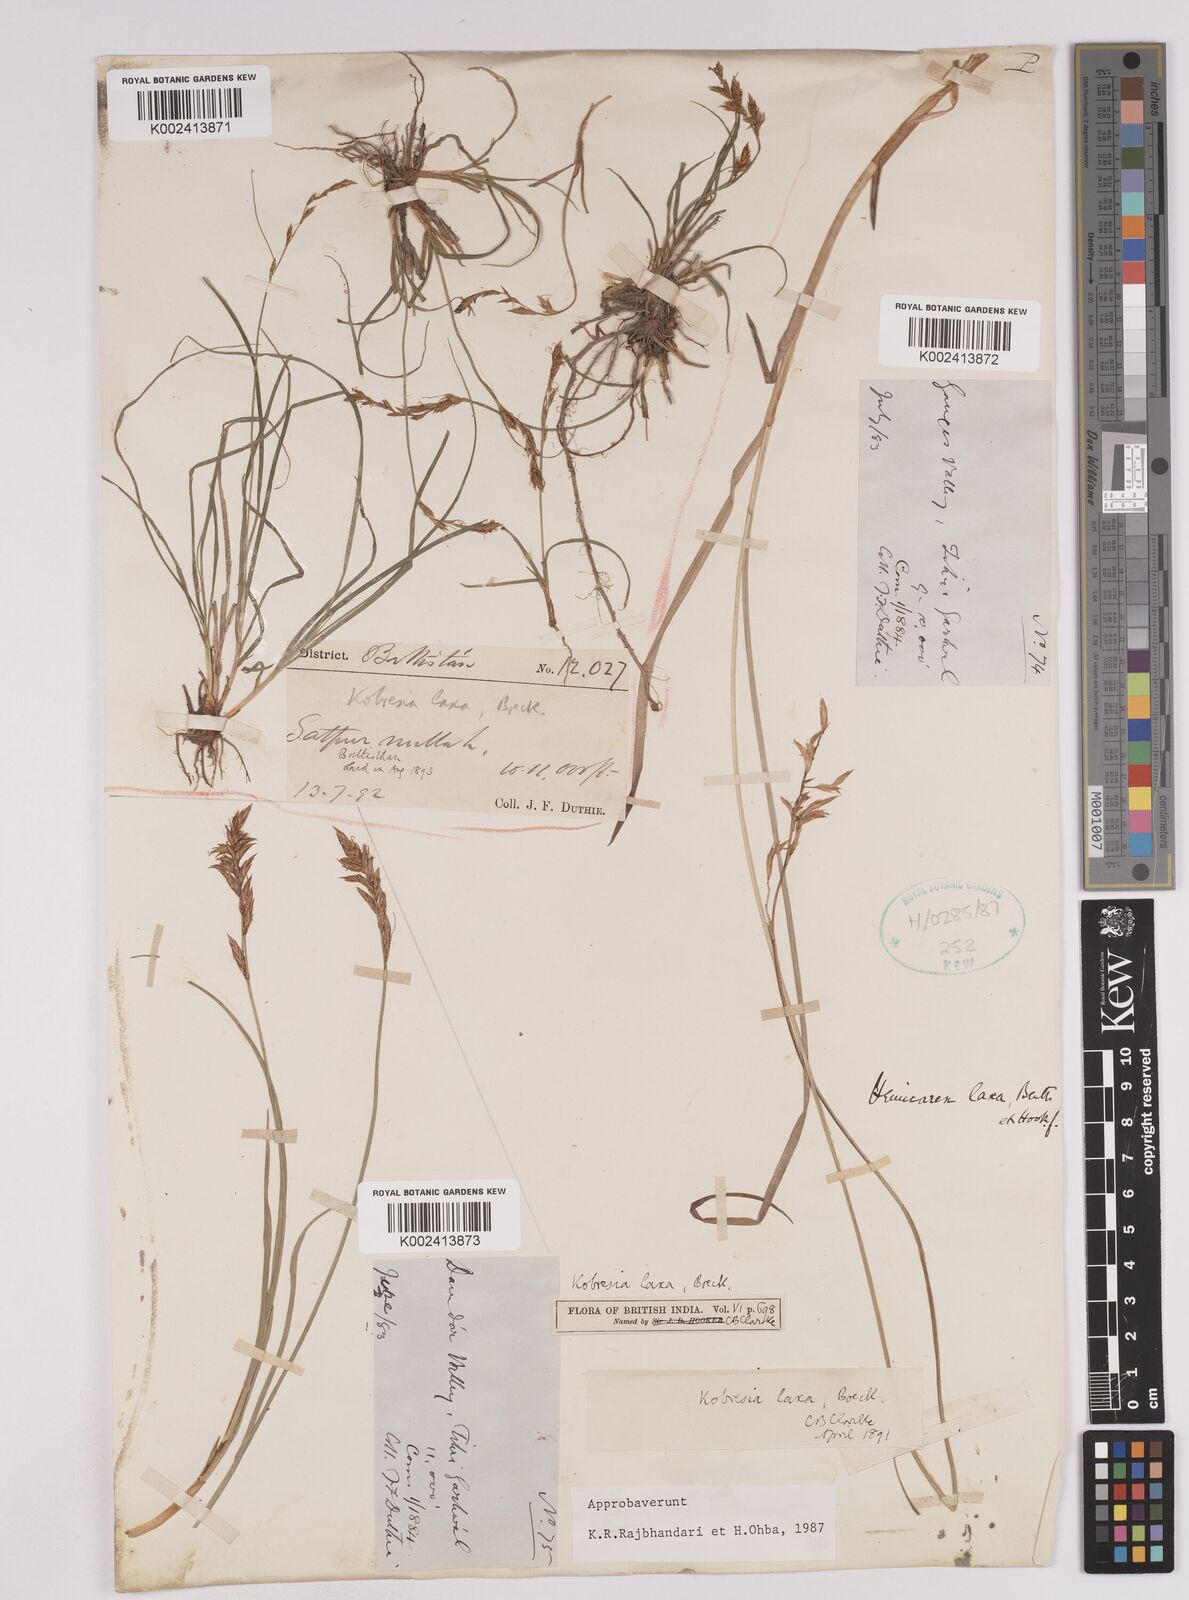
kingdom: Plantae
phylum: Tracheophyta
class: Liliopsida
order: Poales
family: Cyperaceae
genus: Carex
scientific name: Carex pseudolaxa
